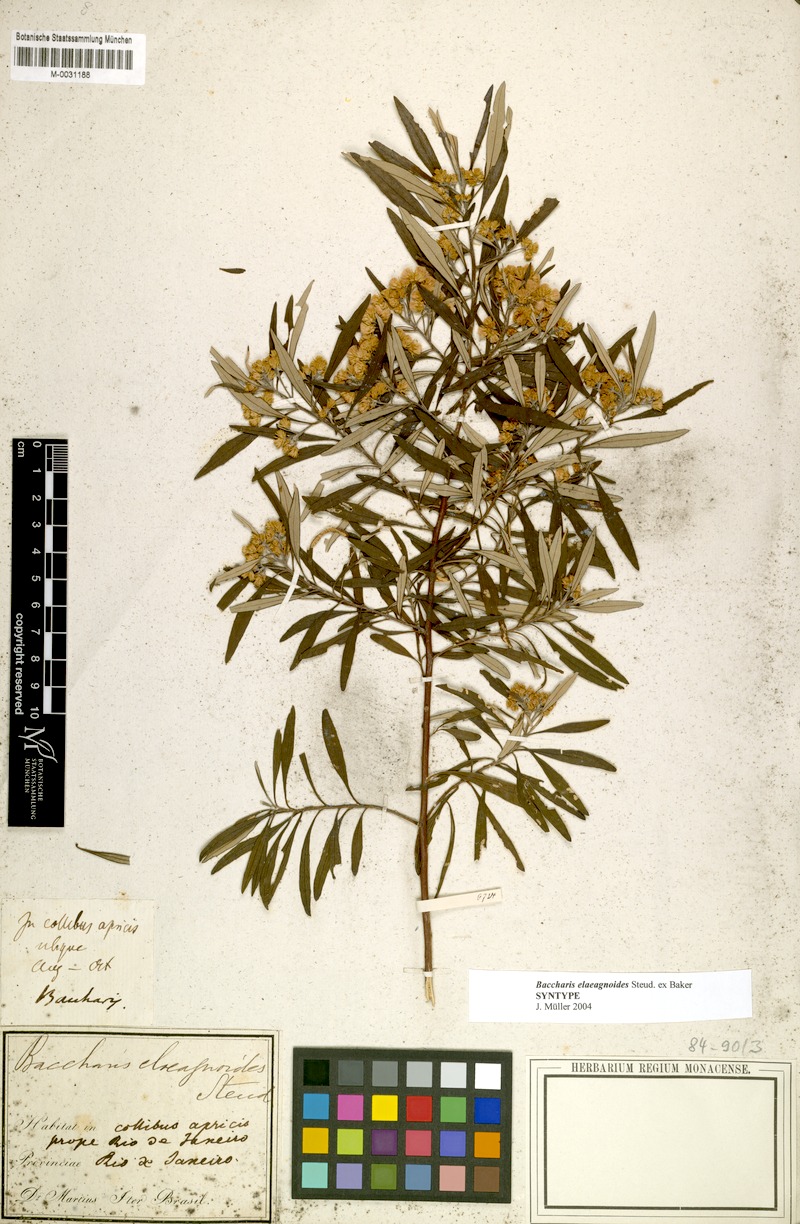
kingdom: Plantae
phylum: Tracheophyta
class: Magnoliopsida
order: Asterales
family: Asteraceae
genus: Baccharis
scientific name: Baccharis montana
